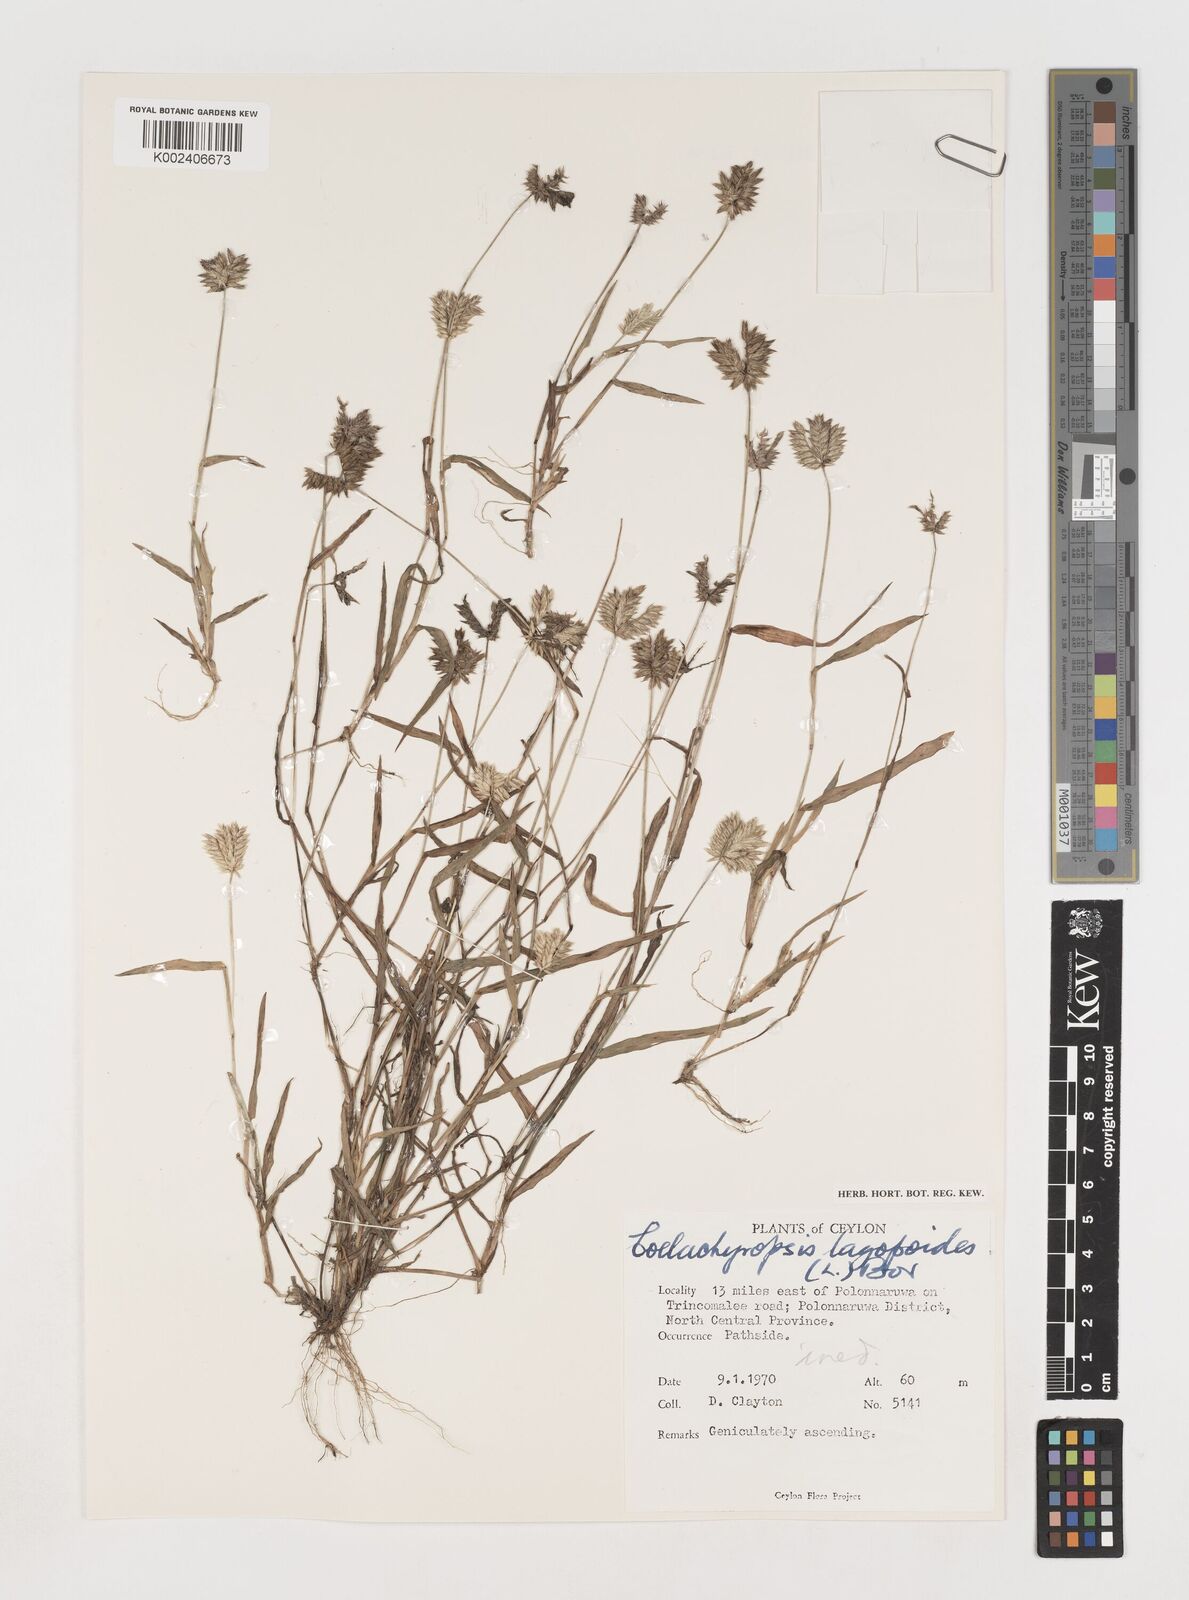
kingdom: Plantae
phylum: Tracheophyta
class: Liliopsida
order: Poales
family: Poaceae
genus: Coelachyrum
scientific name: Coelachyrum lagopoides
